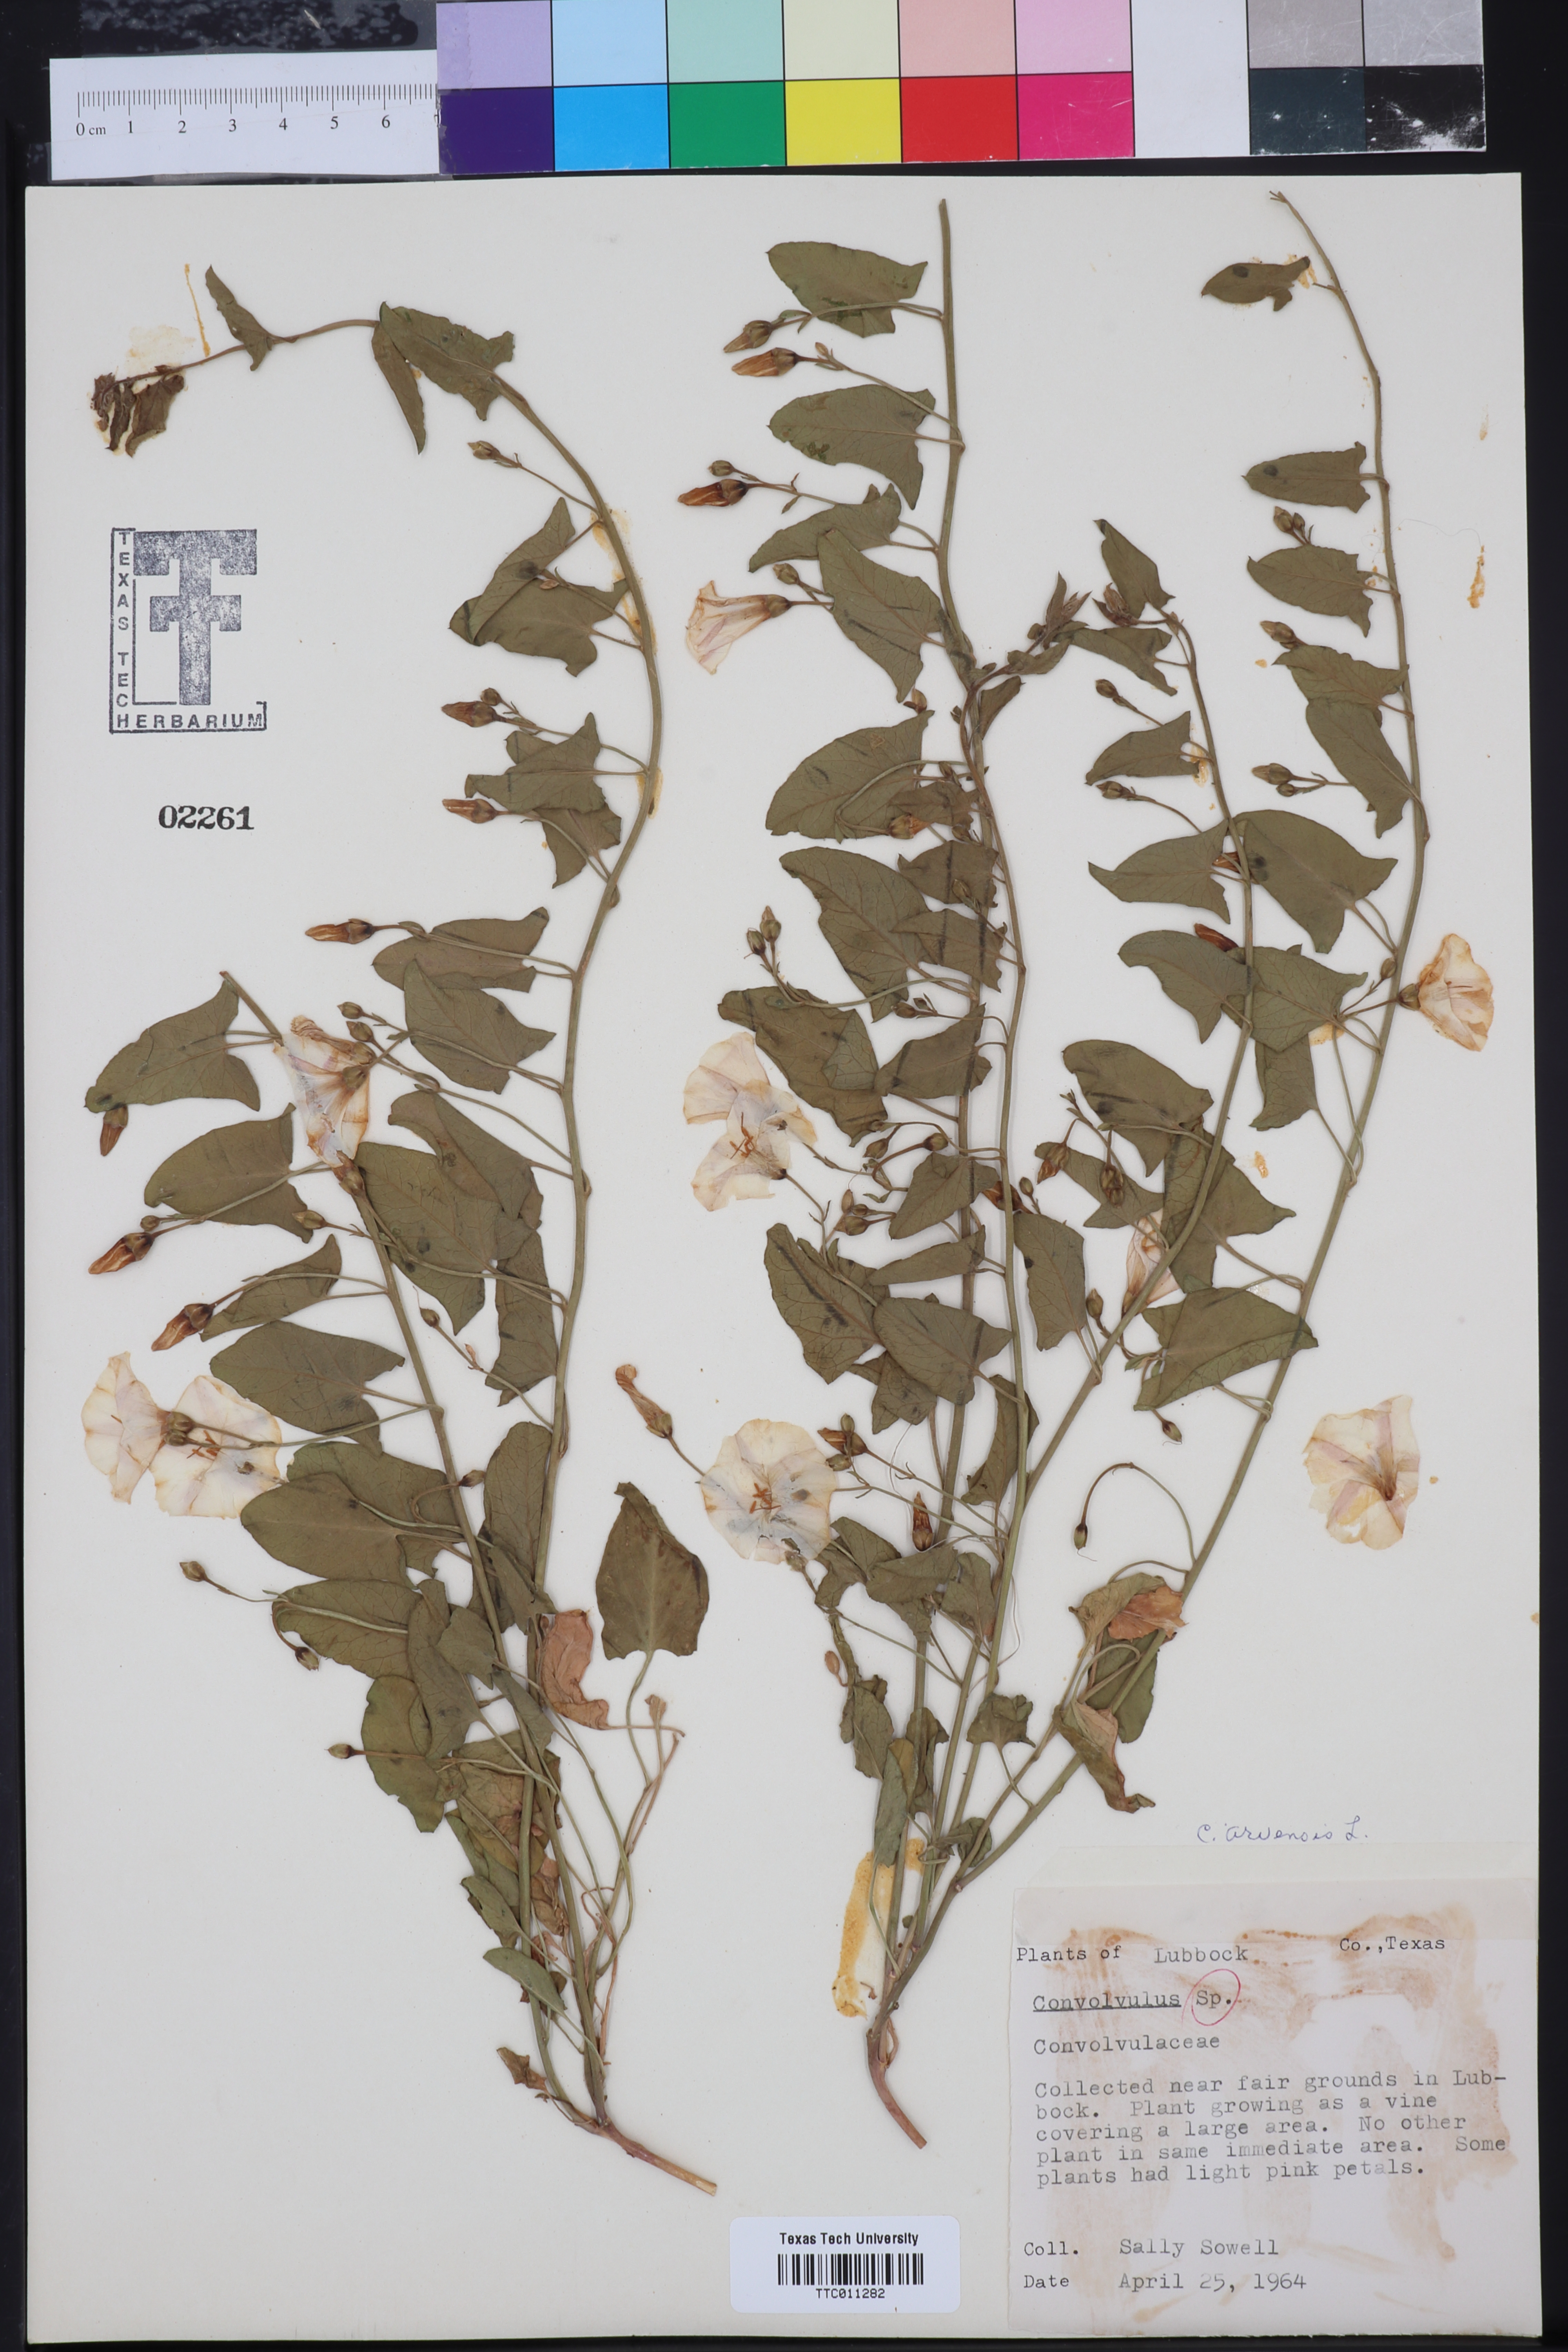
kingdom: Plantae
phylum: Tracheophyta
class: Magnoliopsida
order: Solanales
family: Convolvulaceae
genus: Convolvulus
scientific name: Convolvulus arvensis
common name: Field bindweed
